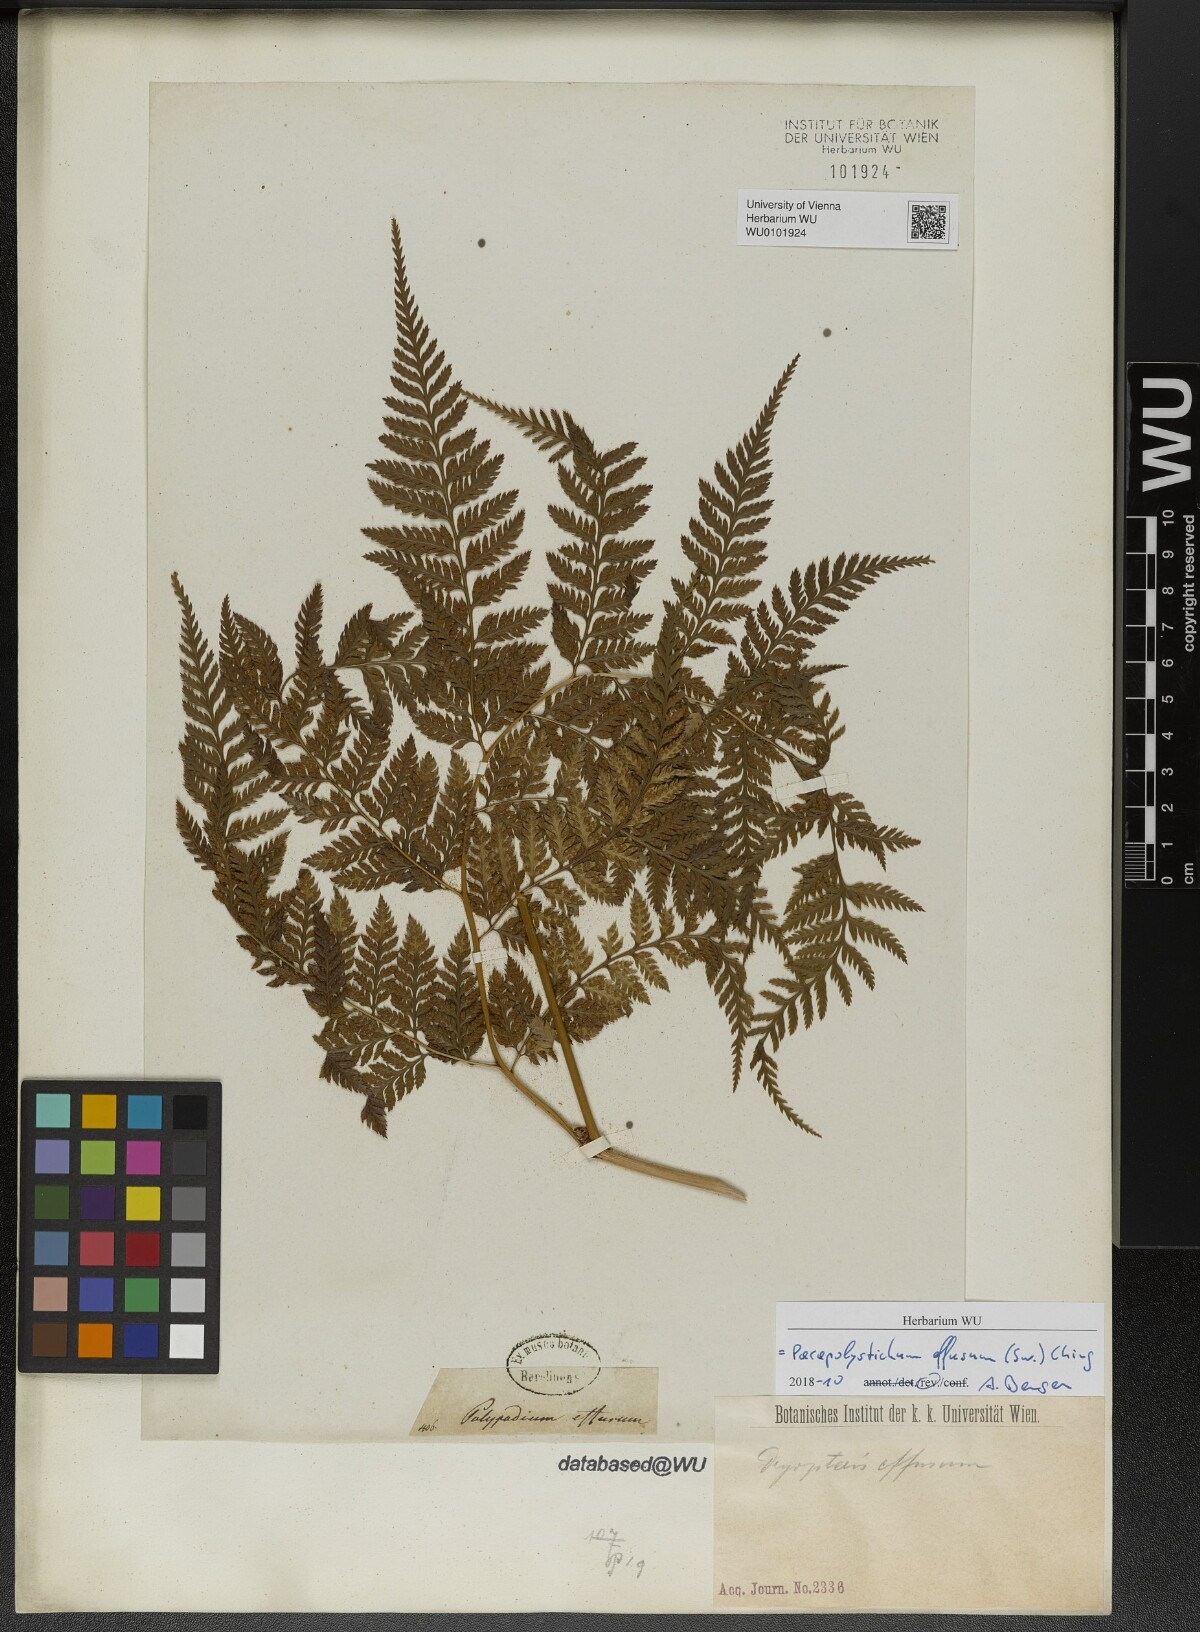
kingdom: Plantae
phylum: Tracheophyta
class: Polypodiopsida
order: Polypodiales
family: Dryopteridaceae
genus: Parapolystichum
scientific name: Parapolystichum effusum
